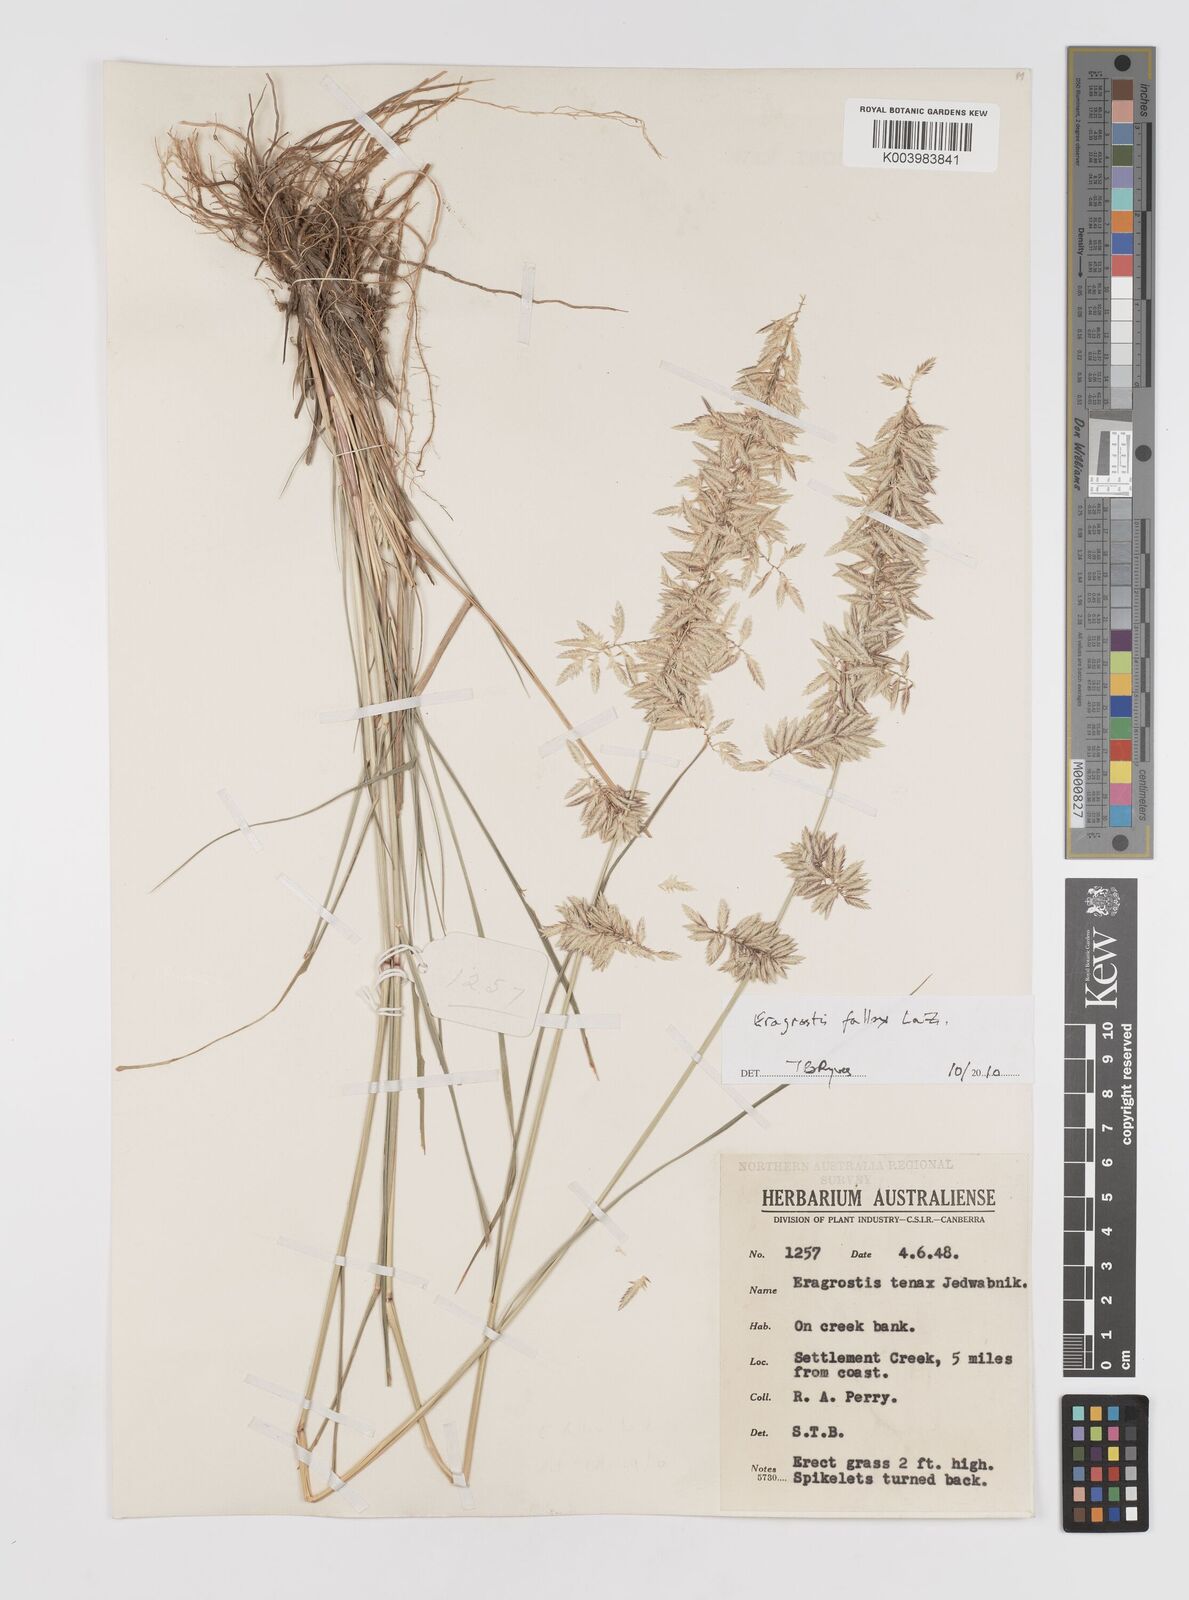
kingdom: Plantae
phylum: Tracheophyta
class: Liliopsida
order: Poales
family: Poaceae
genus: Eragrostis
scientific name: Eragrostis fallax
